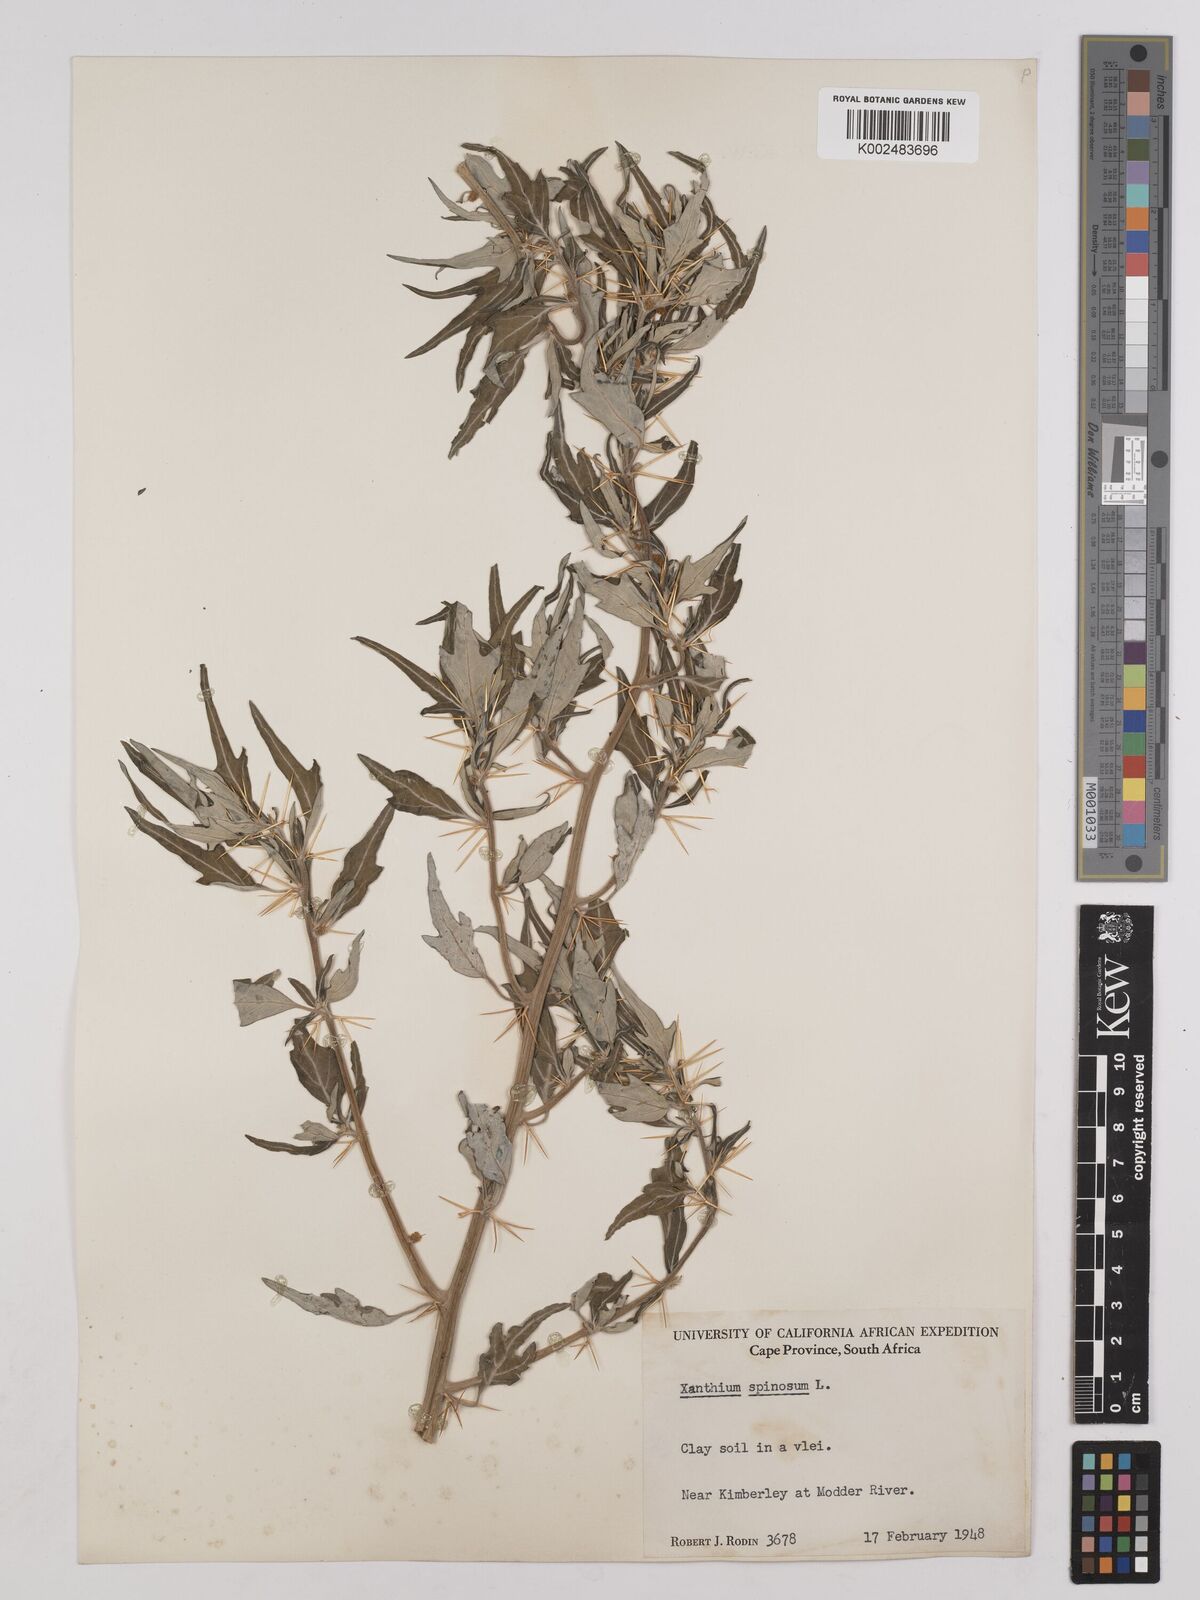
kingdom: Plantae
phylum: Tracheophyta
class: Magnoliopsida
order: Asterales
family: Asteraceae
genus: Xanthium
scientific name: Xanthium spinosum
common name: Spiny cocklebur
